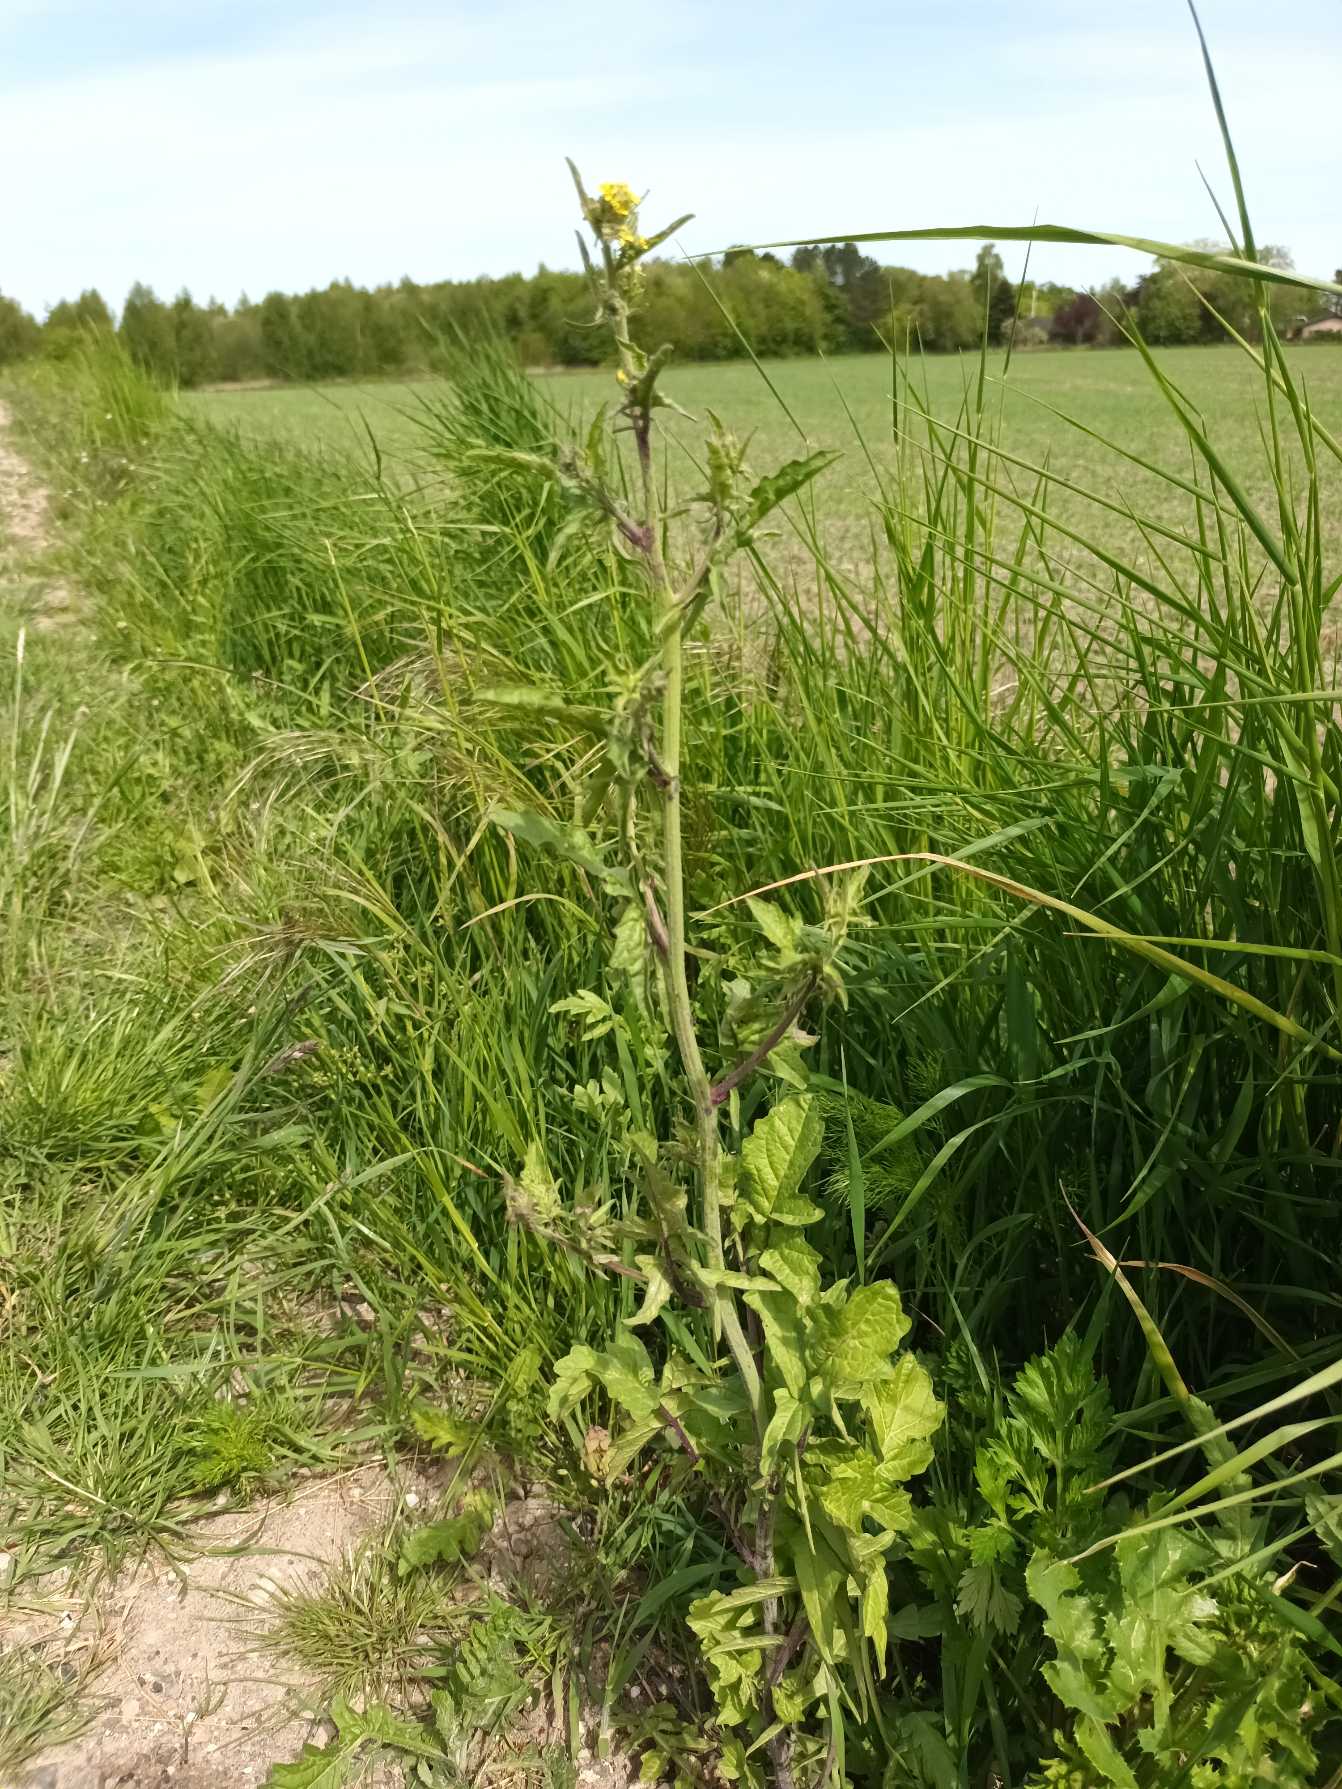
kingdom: Plantae
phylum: Tracheophyta
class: Magnoliopsida
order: Brassicales
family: Brassicaceae
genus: Sisymbrium
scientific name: Sisymbrium officinale
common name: Rank vejsennep
